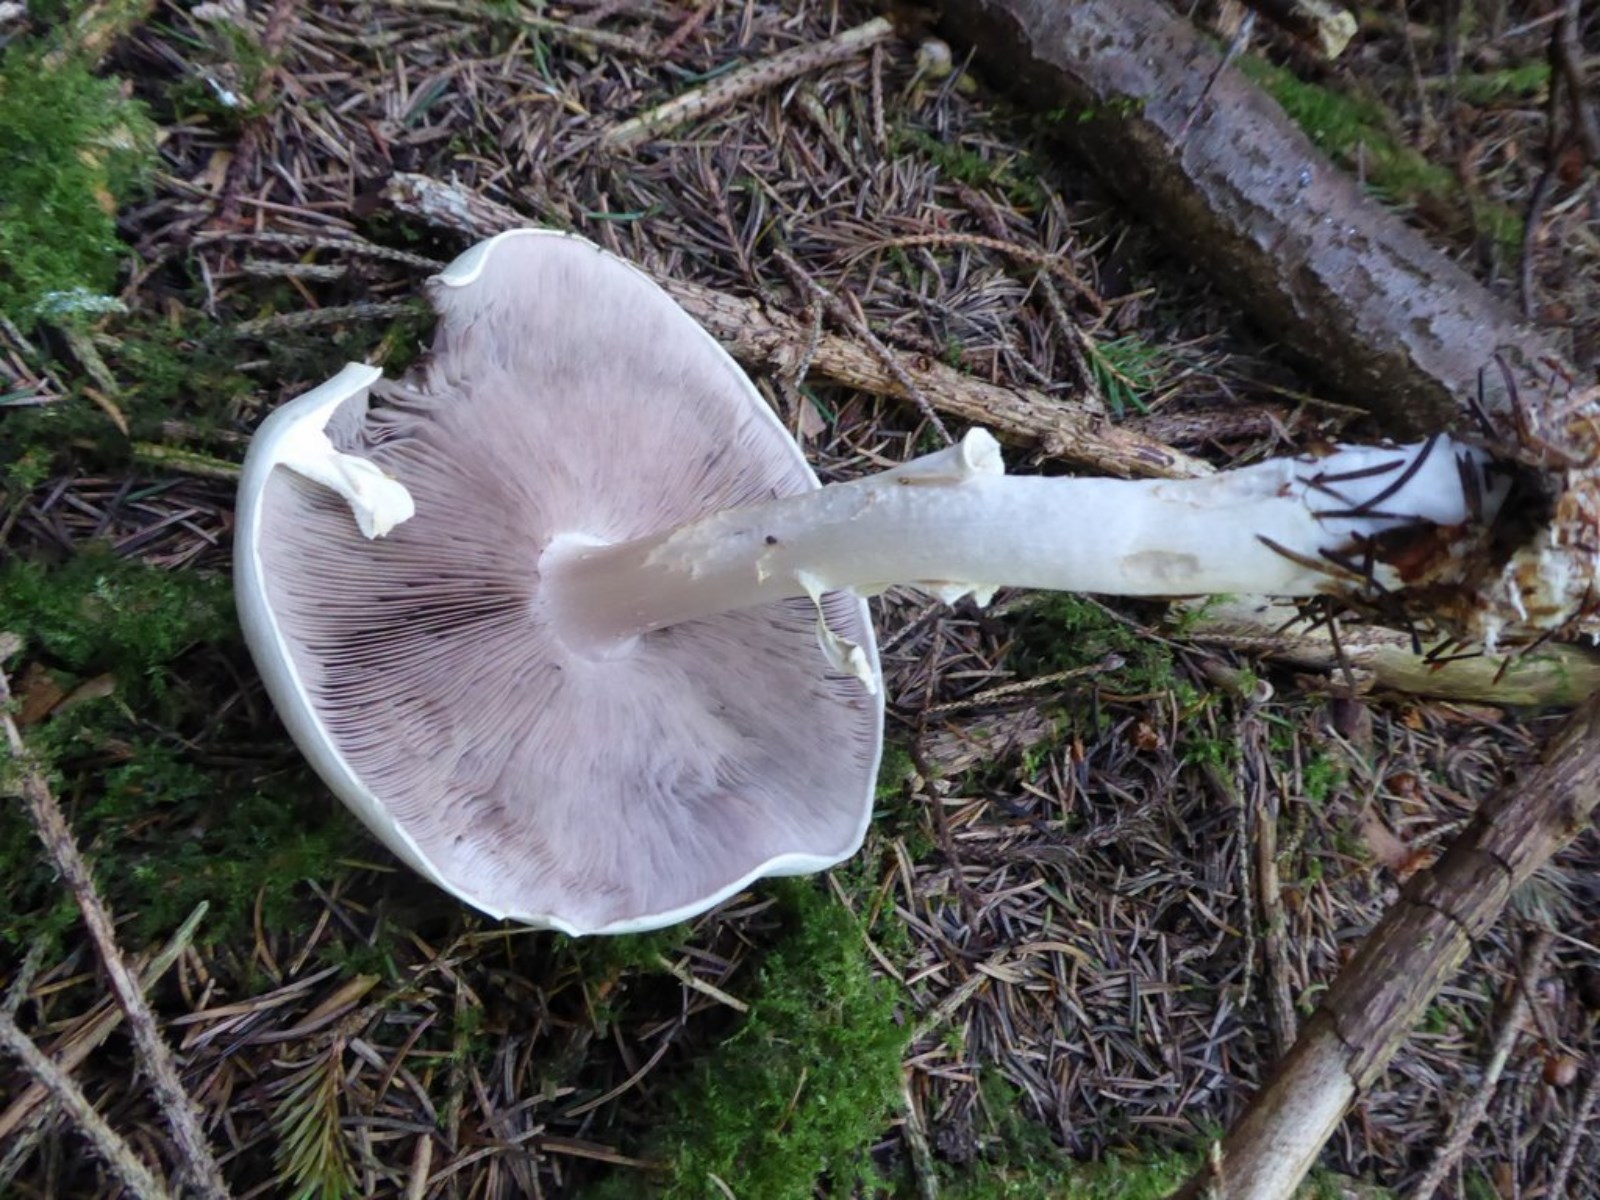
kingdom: Fungi
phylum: Basidiomycota
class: Agaricomycetes
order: Agaricales
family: Agaricaceae
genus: Agaricus
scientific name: Agaricus sylvicola
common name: gulhvid champignon
